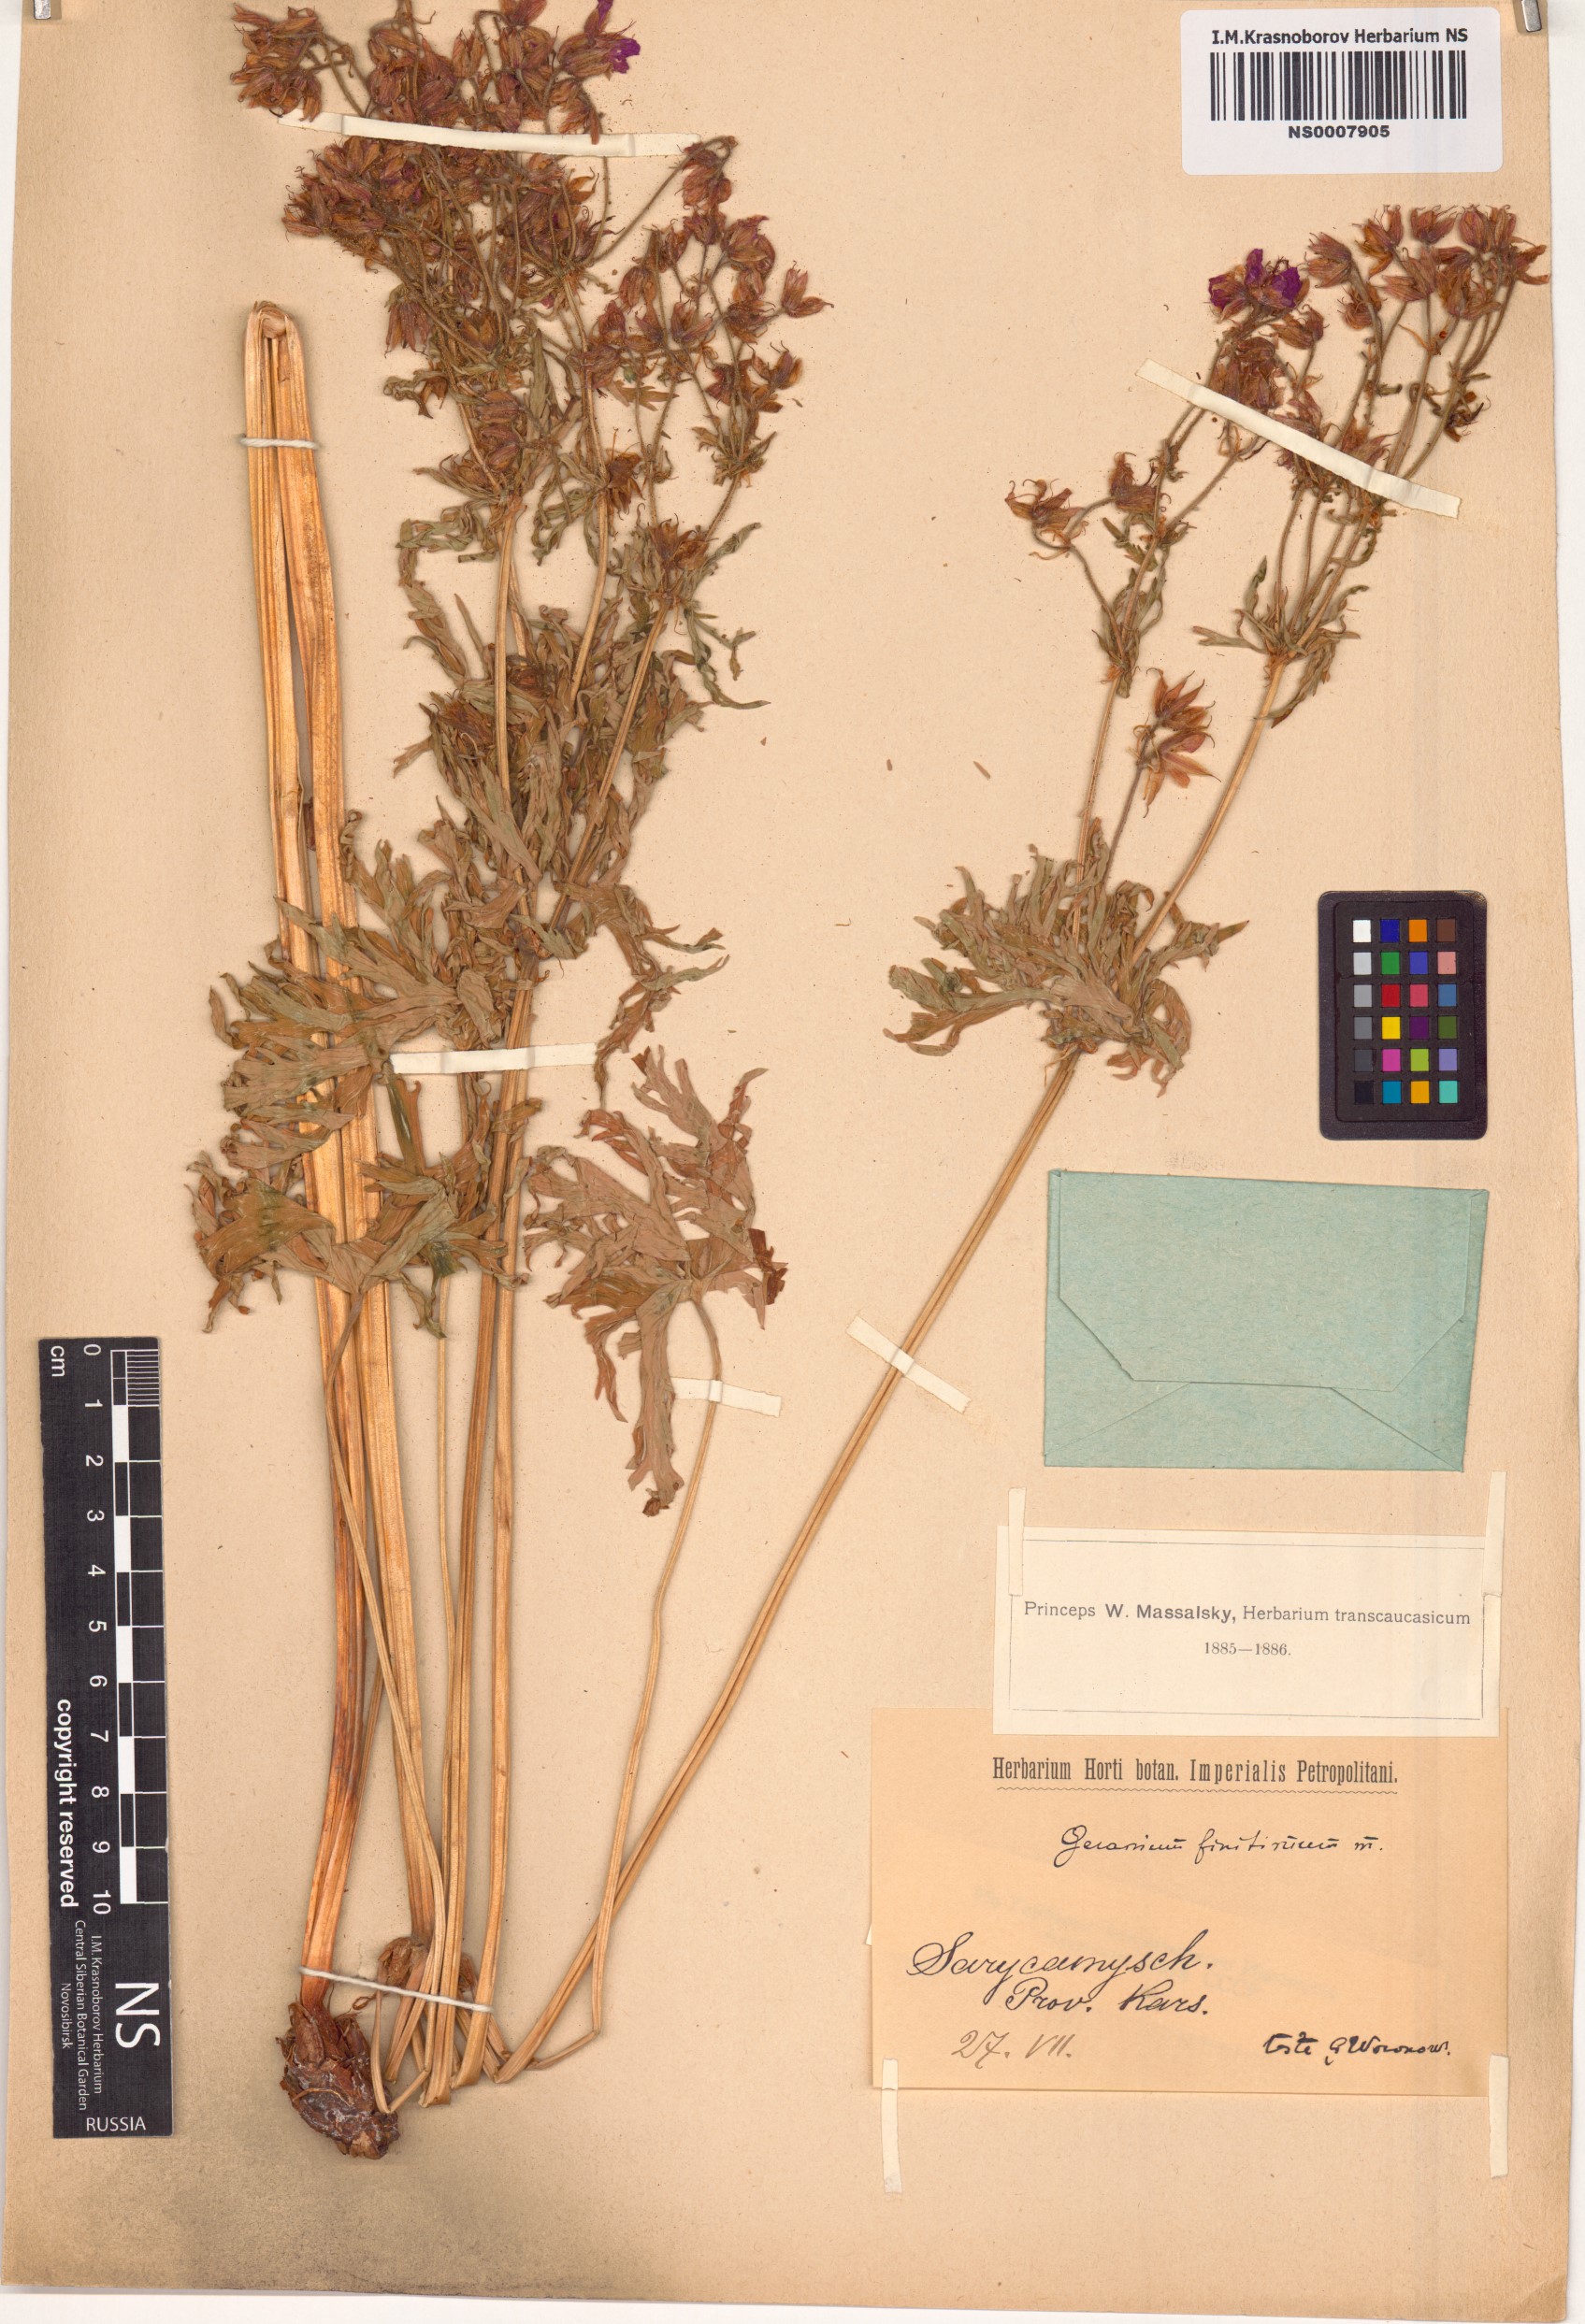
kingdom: Plantae
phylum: Tracheophyta
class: Magnoliopsida
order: Geraniales
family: Geraniaceae
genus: Geranium
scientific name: Geranium pratense
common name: Meadow crane's-bill
